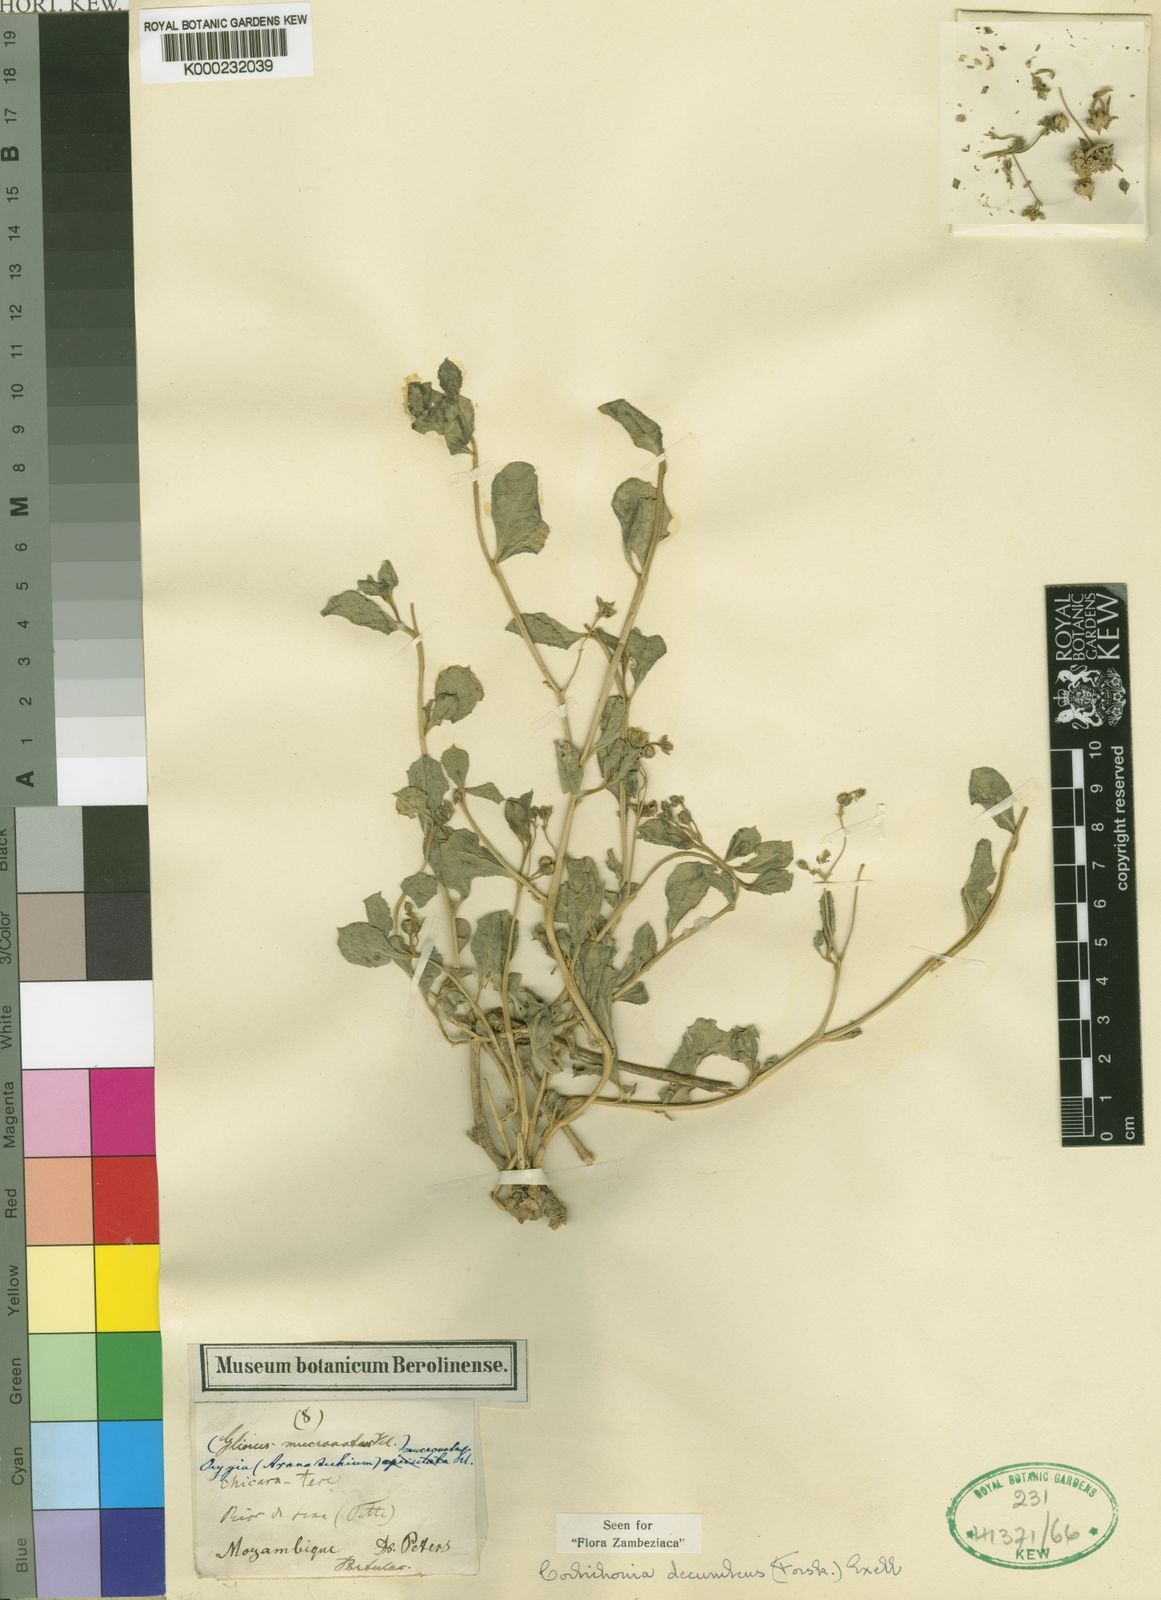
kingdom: Plantae
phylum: Tracheophyta
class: Magnoliopsida
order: Caryophyllales
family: Corbichoniaceae
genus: Corbichonia
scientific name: Corbichonia decumbens
